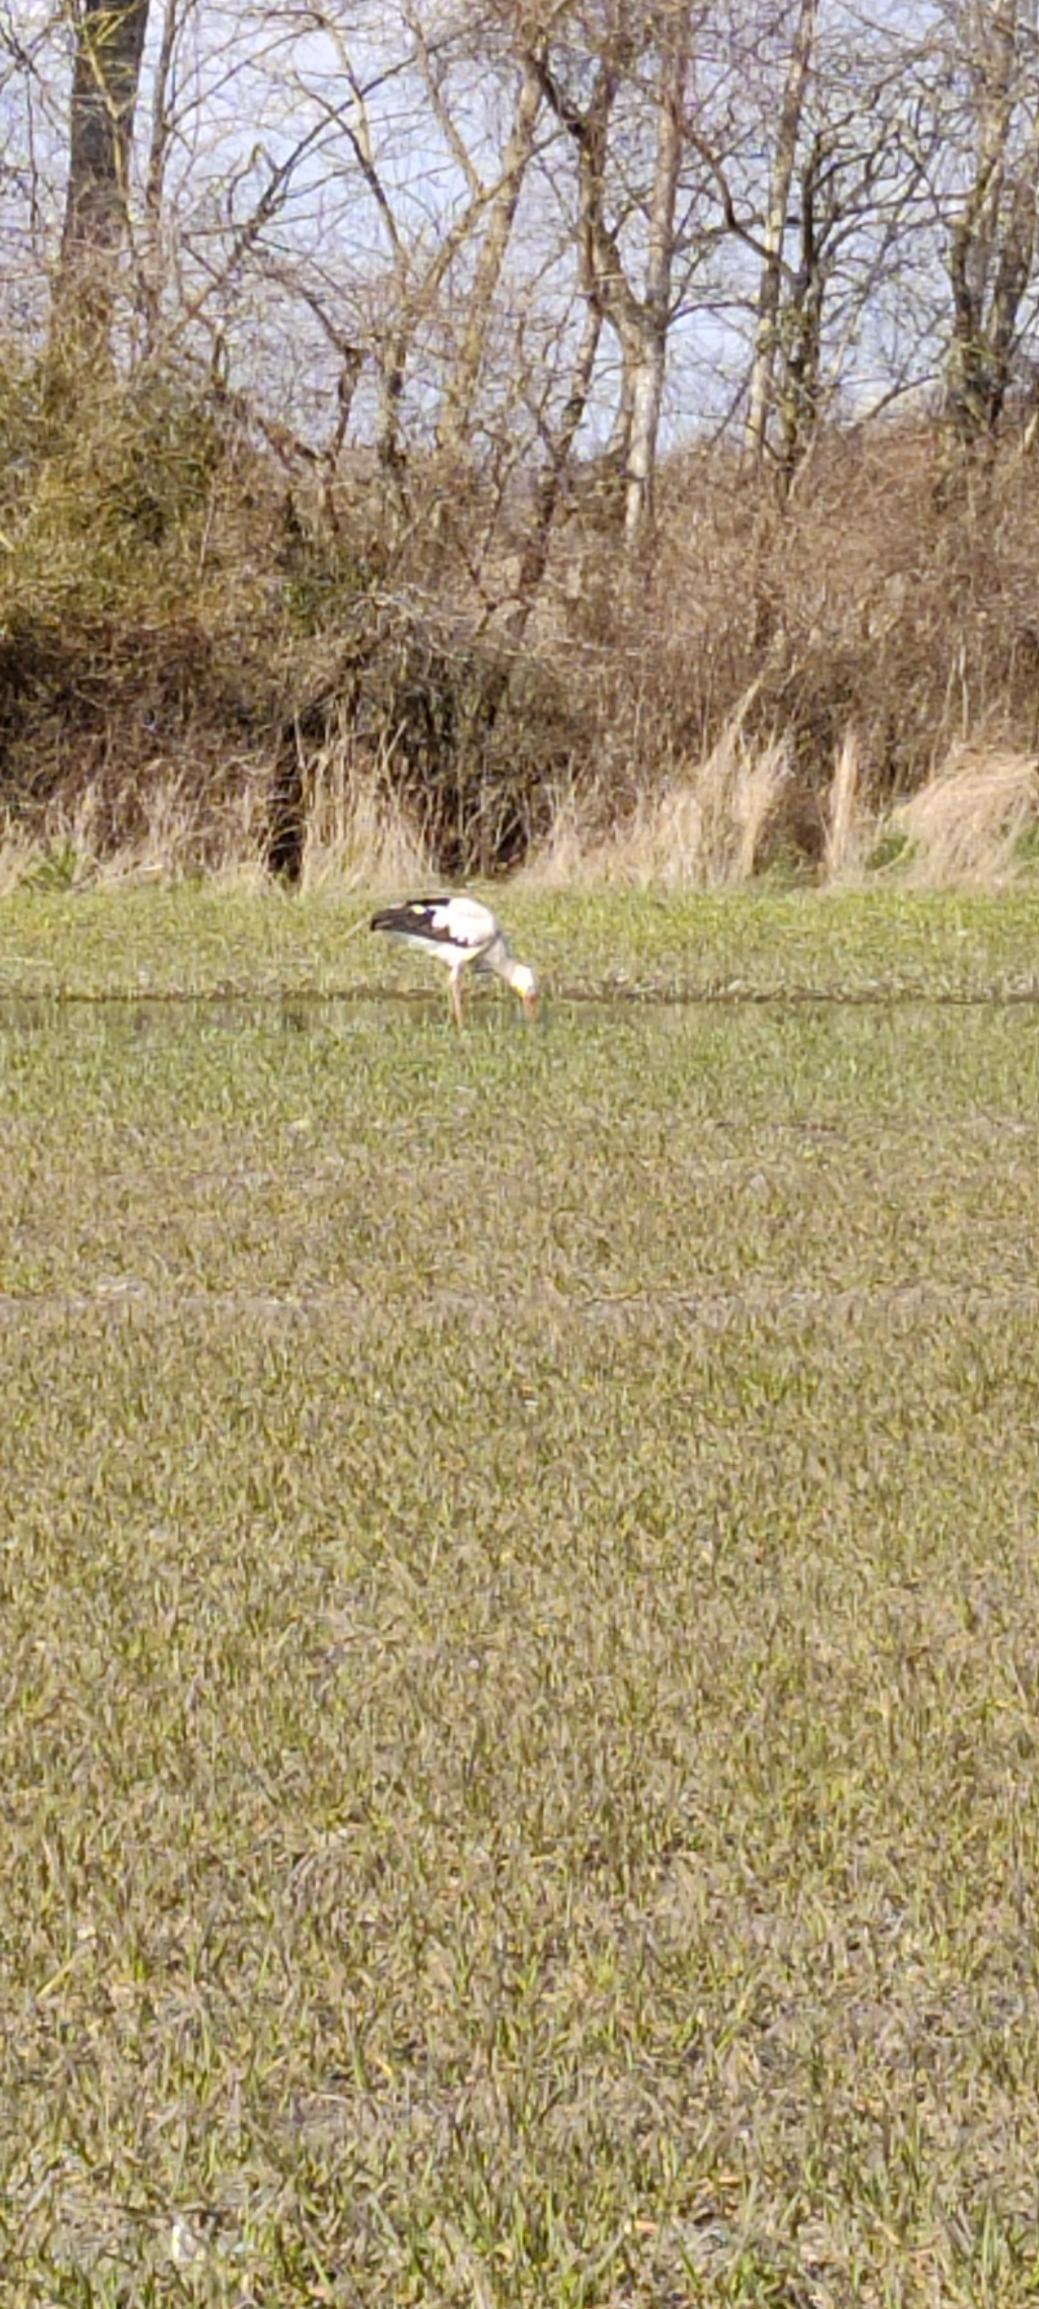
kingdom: Animalia
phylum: Chordata
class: Aves
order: Ciconiiformes
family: Ciconiidae
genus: Ciconia
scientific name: Ciconia ciconia
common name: Hvid stork
